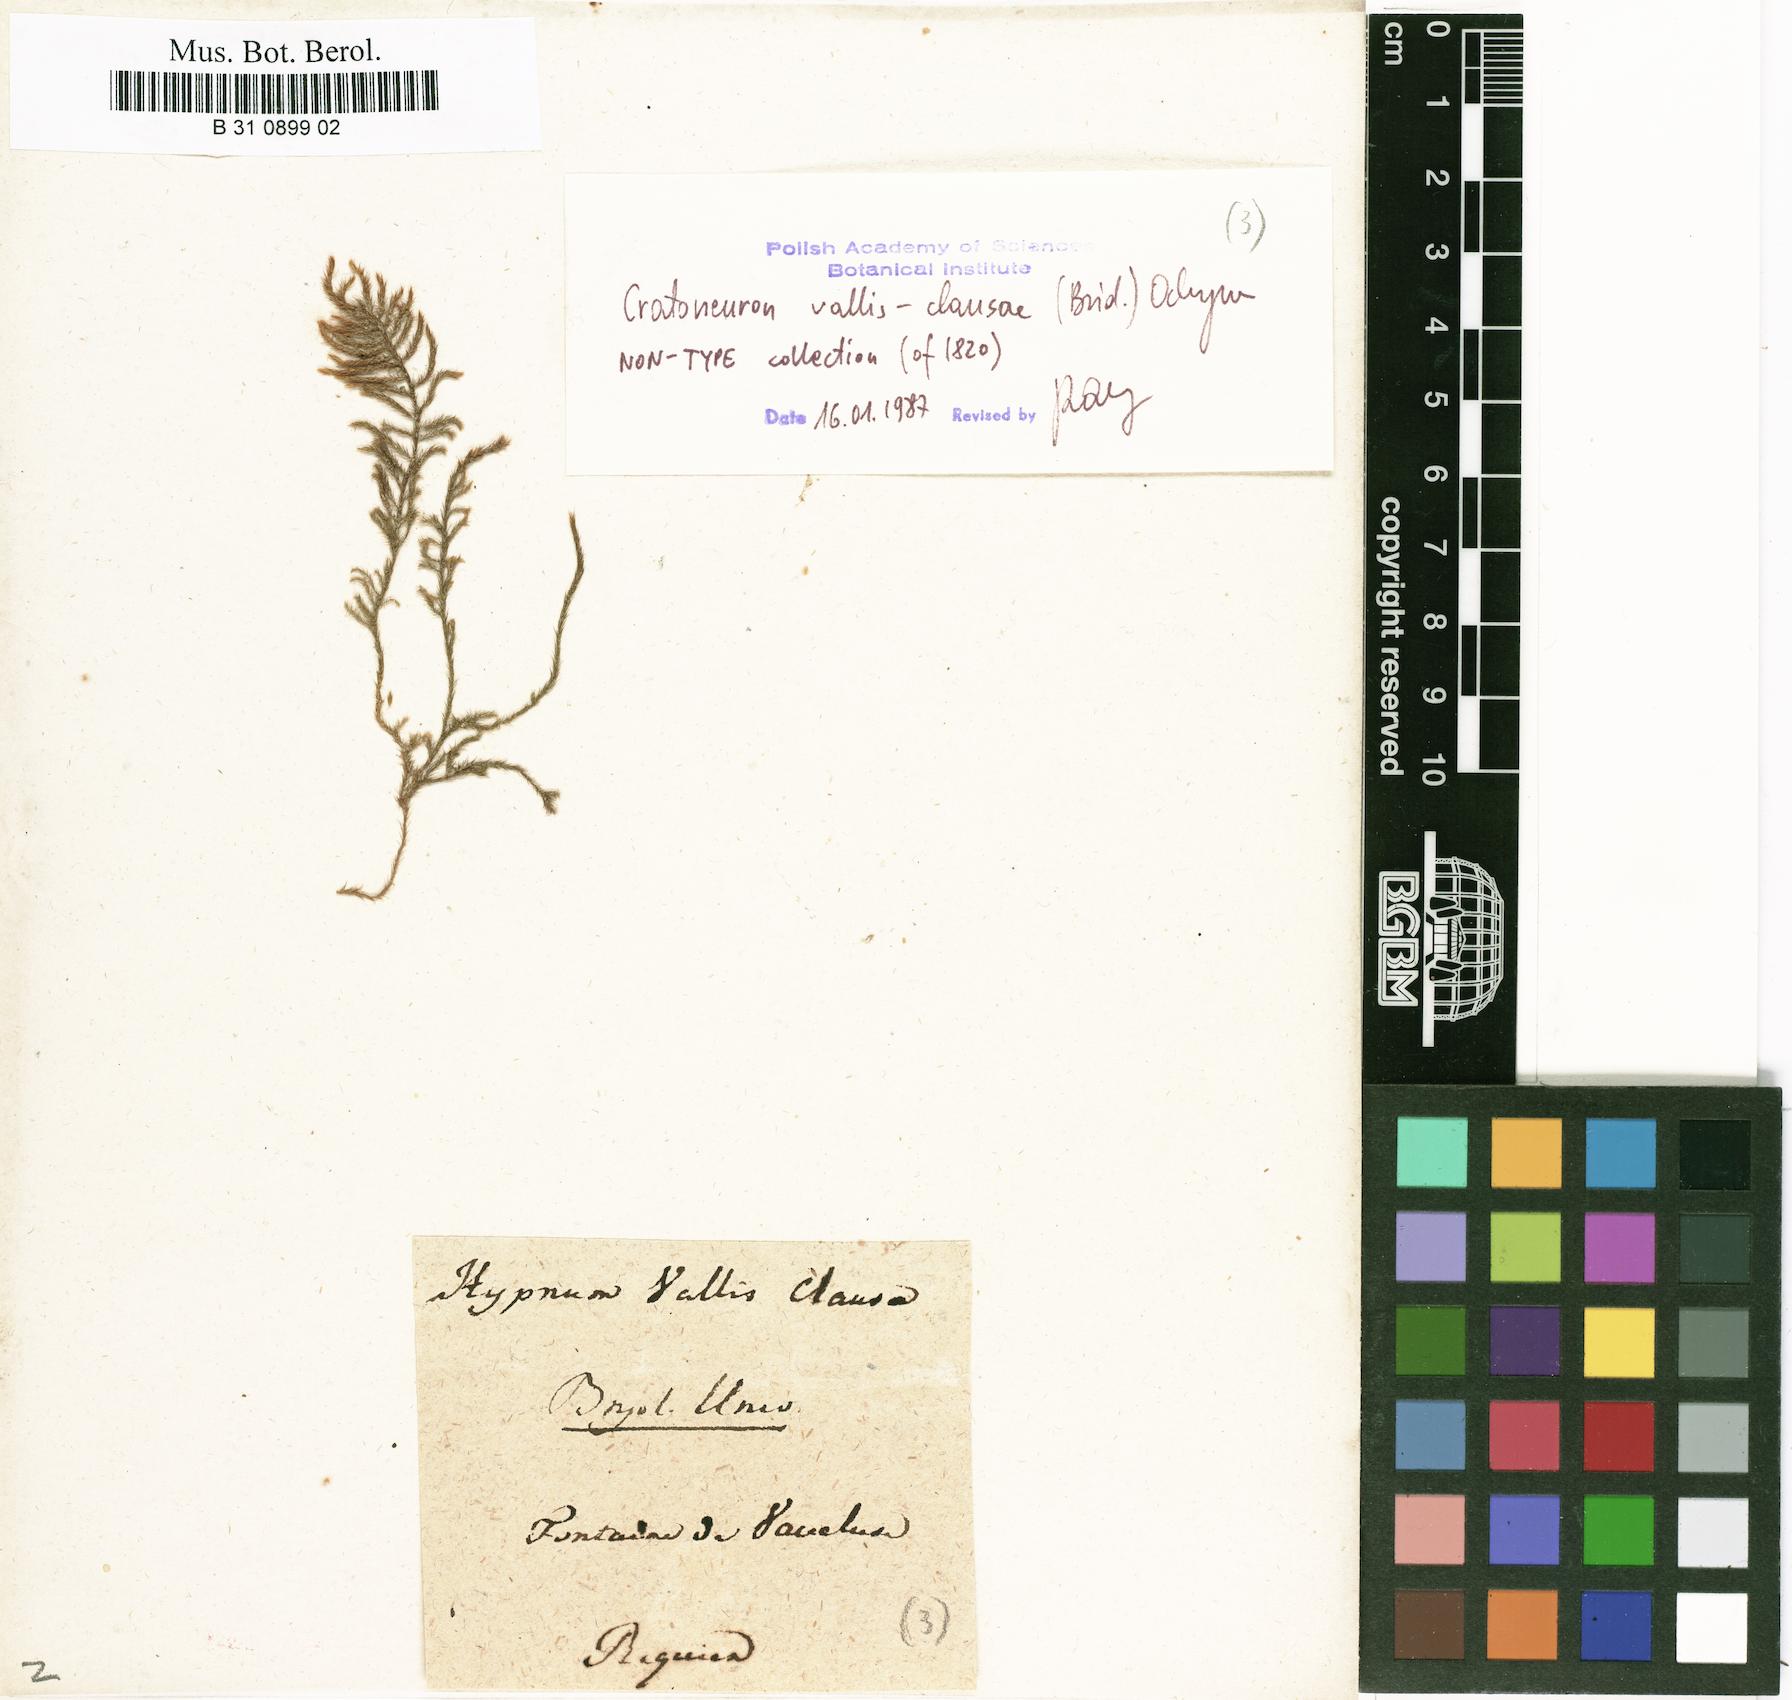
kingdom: Plantae
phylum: Bryophyta
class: Bryopsida
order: Hypnales
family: Amblystegiaceae
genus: Cratoneuron
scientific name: Cratoneuron filicinum
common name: Fern-leaved hook moss
